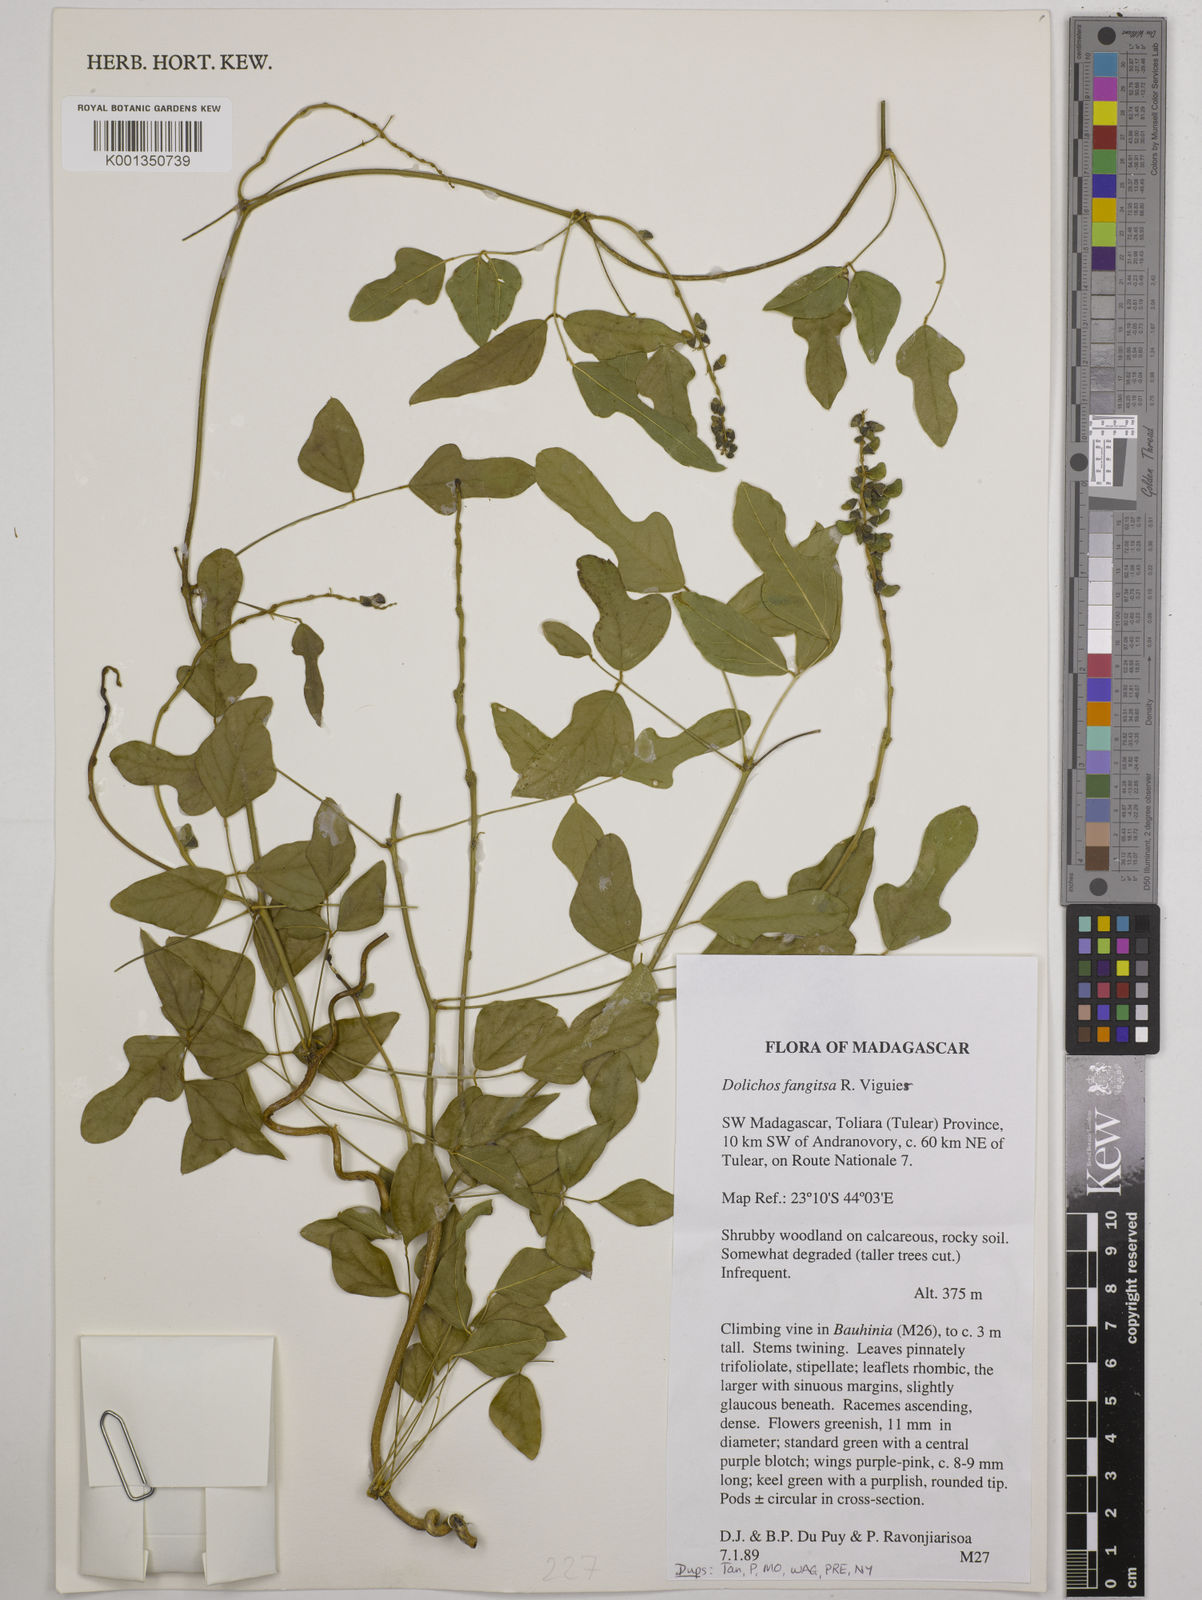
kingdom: Plantae
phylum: Tracheophyta
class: Magnoliopsida
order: Fabales
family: Fabaceae
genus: Dolichos
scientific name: Dolichos fangitsa
